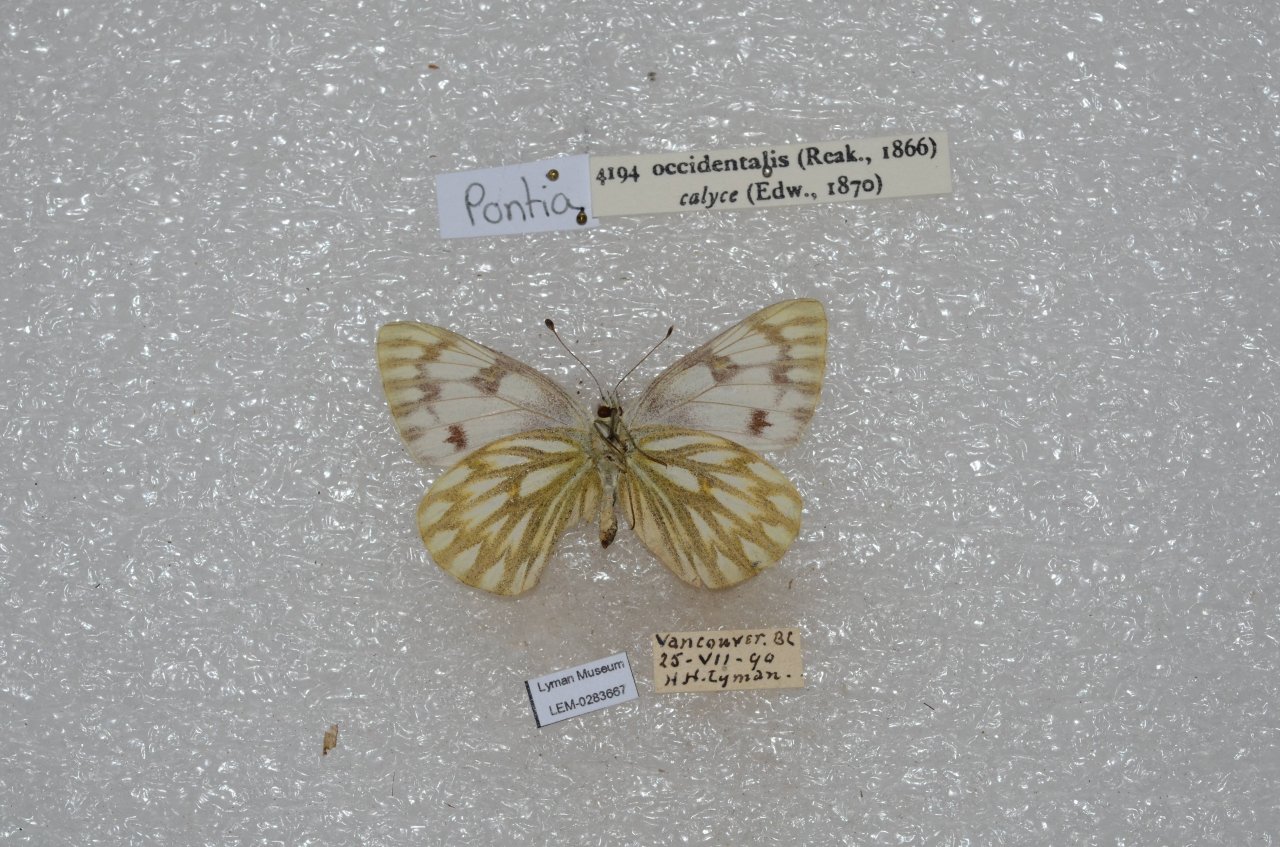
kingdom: Animalia
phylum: Arthropoda
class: Insecta
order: Lepidoptera
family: Pieridae
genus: Pontia
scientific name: Pontia occidentalis
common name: Western White
